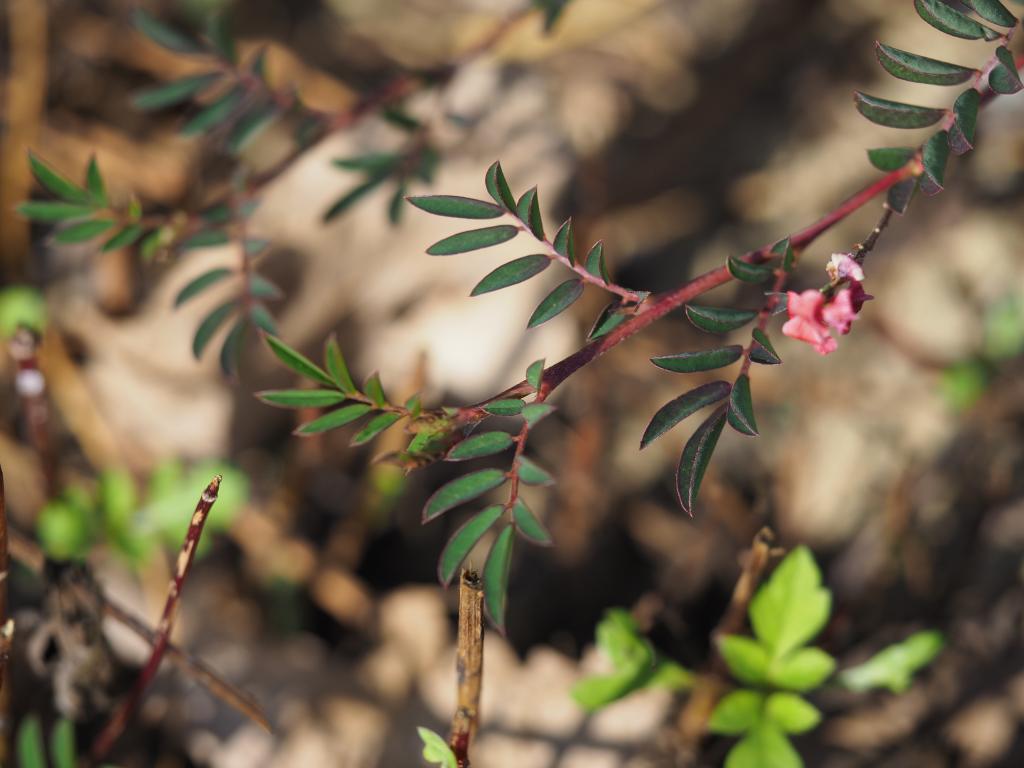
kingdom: Plantae
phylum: Tracheophyta
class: Magnoliopsida
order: Fabales
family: Fabaceae
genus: Indigofera
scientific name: Indigofera spicata
